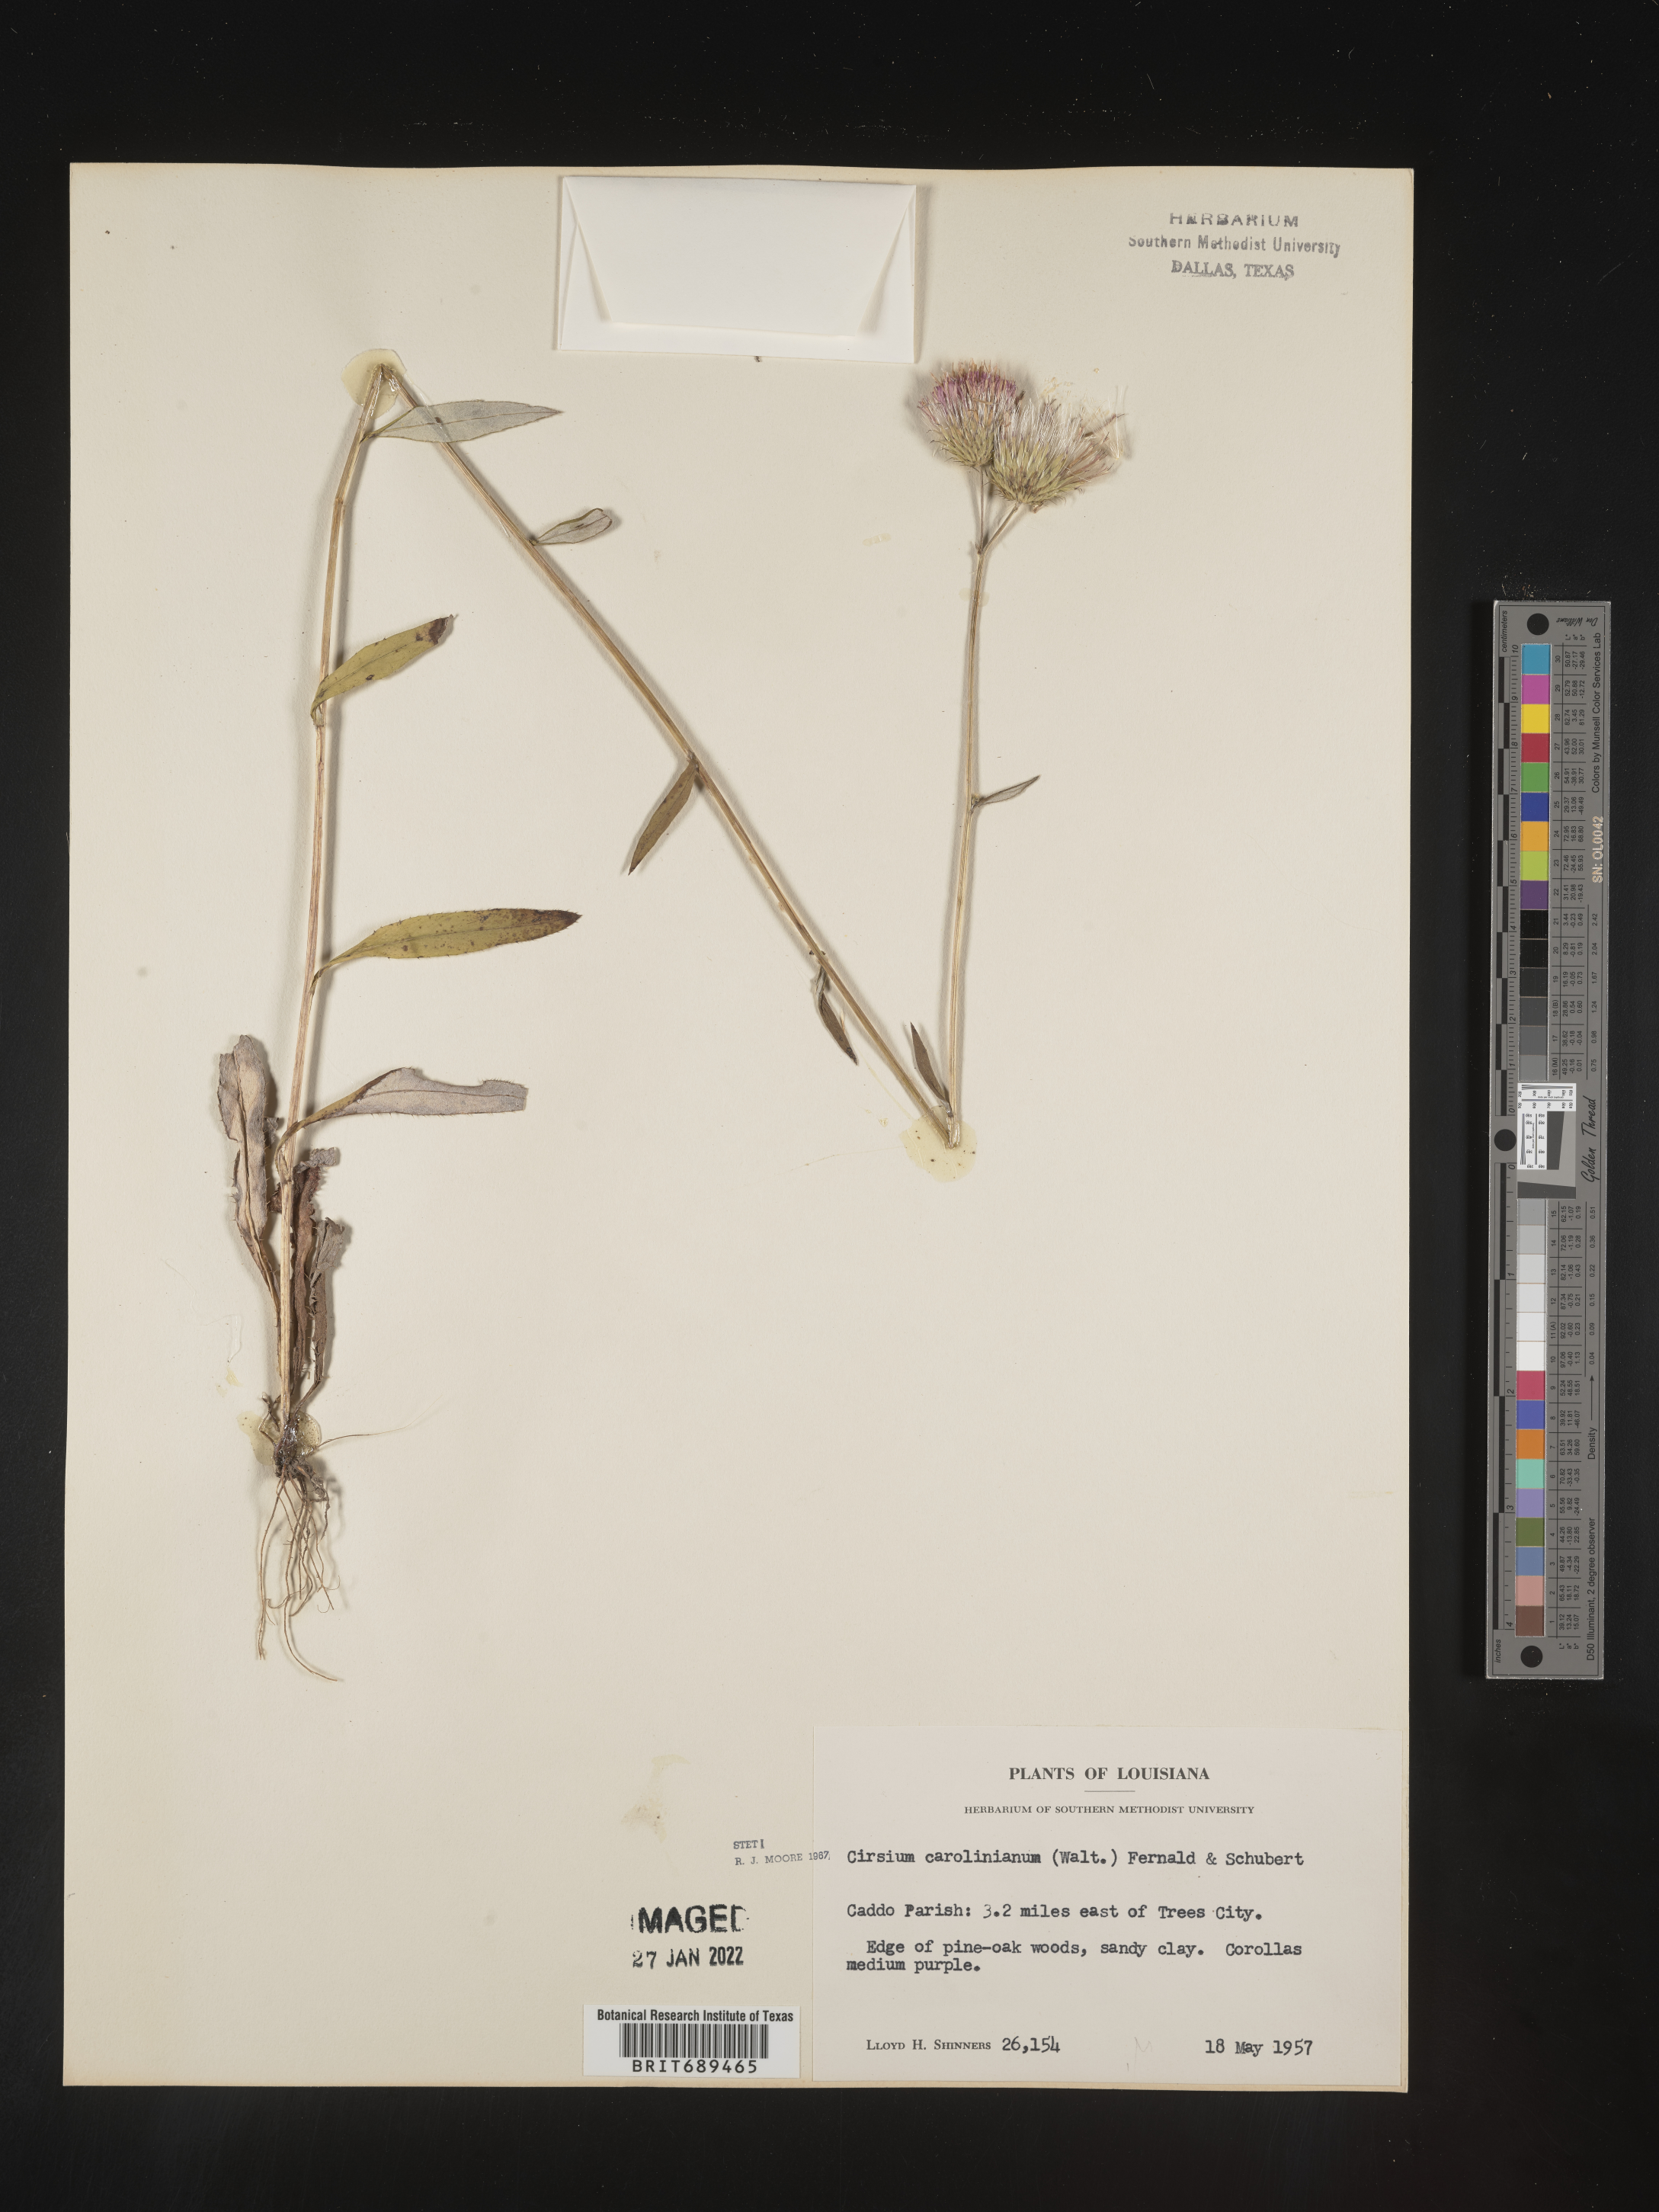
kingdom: Plantae
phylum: Tracheophyta
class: Magnoliopsida
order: Asterales
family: Asteraceae
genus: Cirsium
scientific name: Cirsium carolinianum
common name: Carolina thistle
